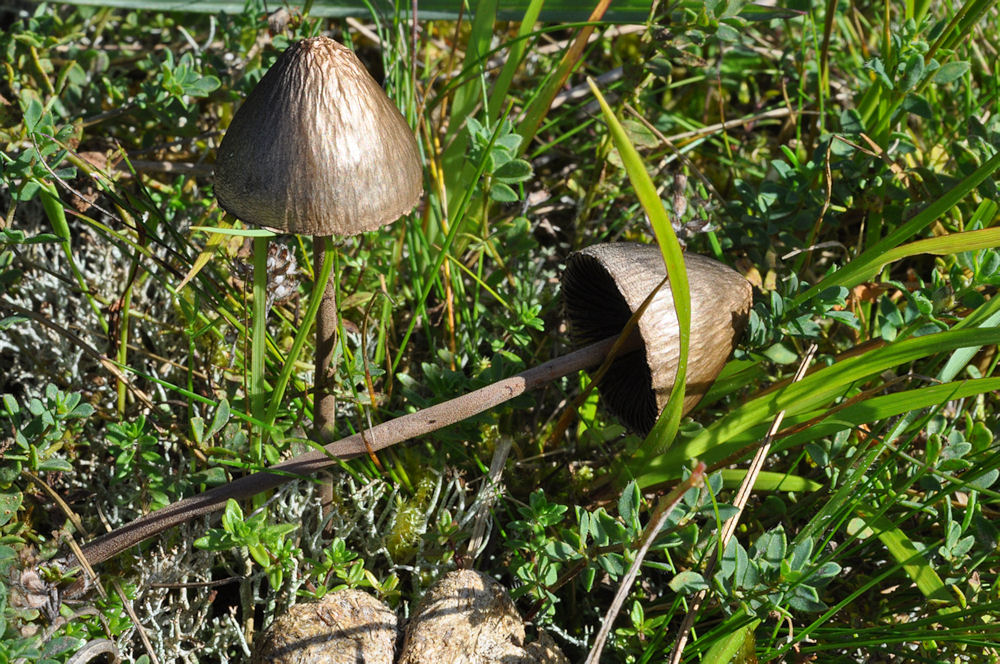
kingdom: Fungi
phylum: Basidiomycota
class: Agaricomycetes
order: Agaricales
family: Bolbitiaceae
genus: Panaeolus
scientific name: Panaeolus papilionaceus
